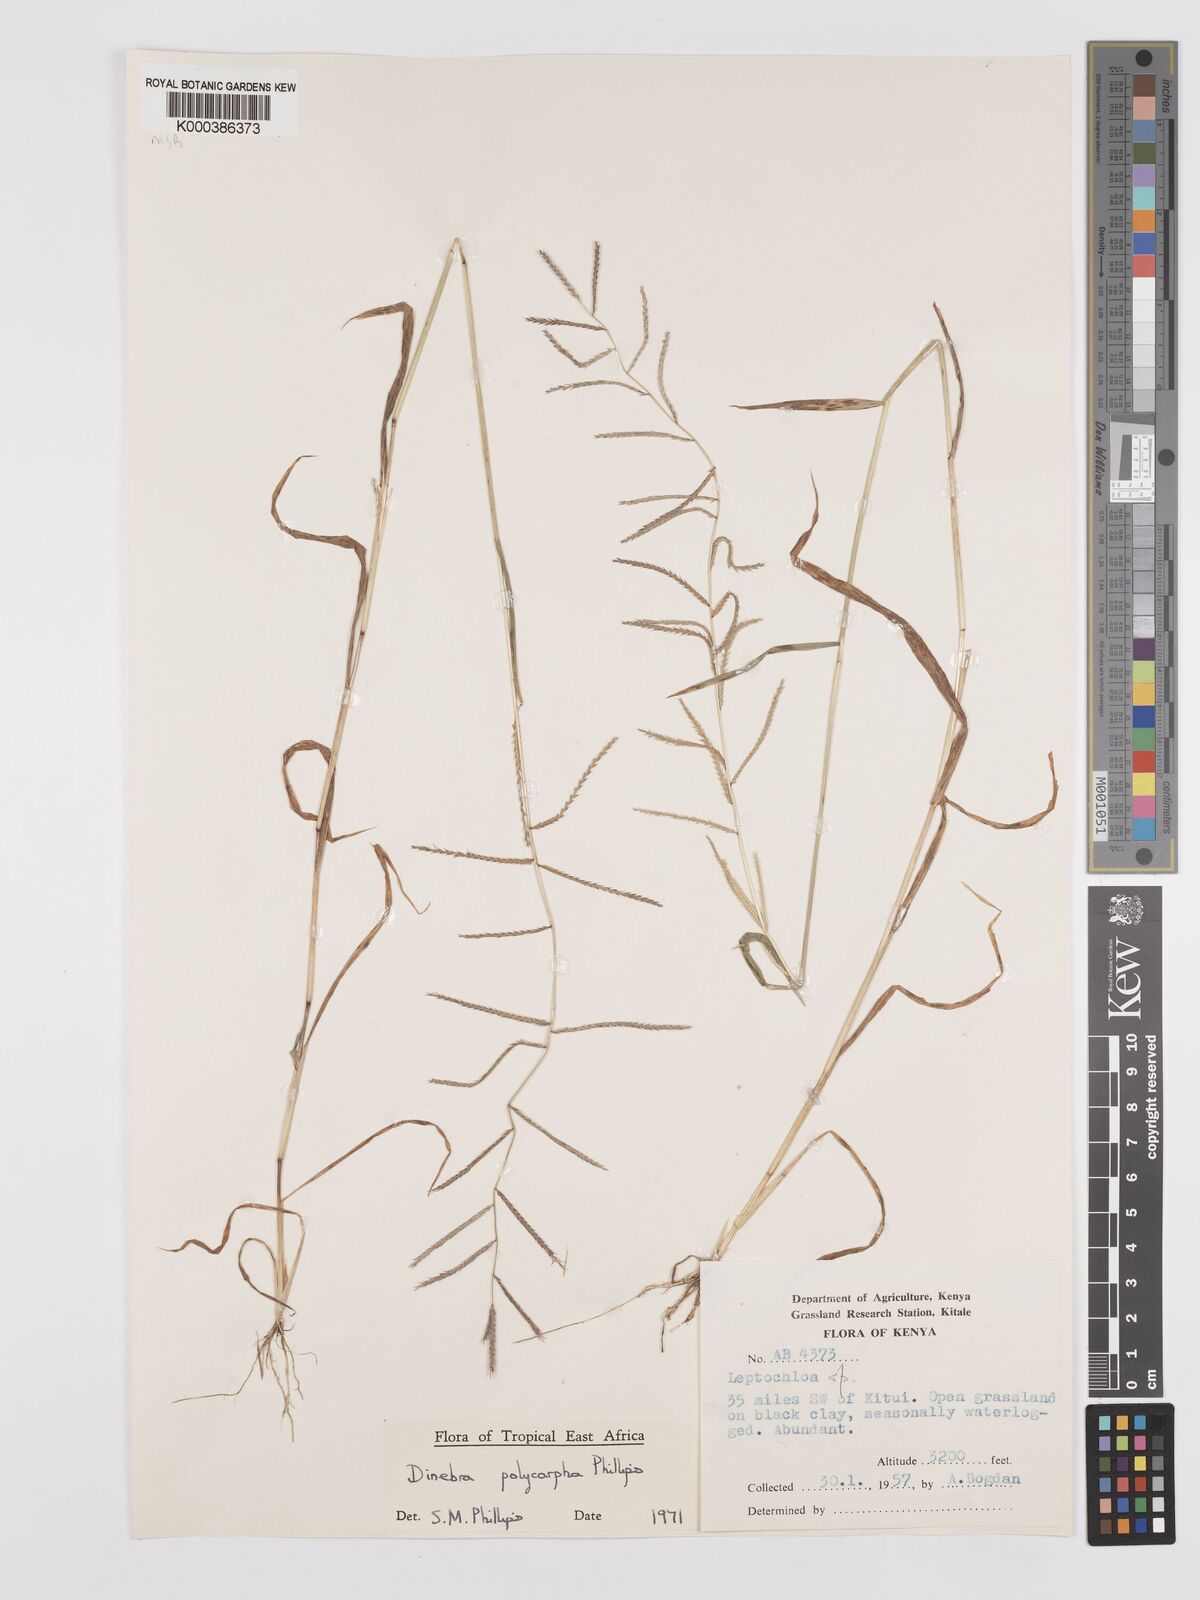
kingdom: Plantae
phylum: Tracheophyta
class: Liliopsida
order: Poales
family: Poaceae
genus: Dinebra
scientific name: Dinebra
